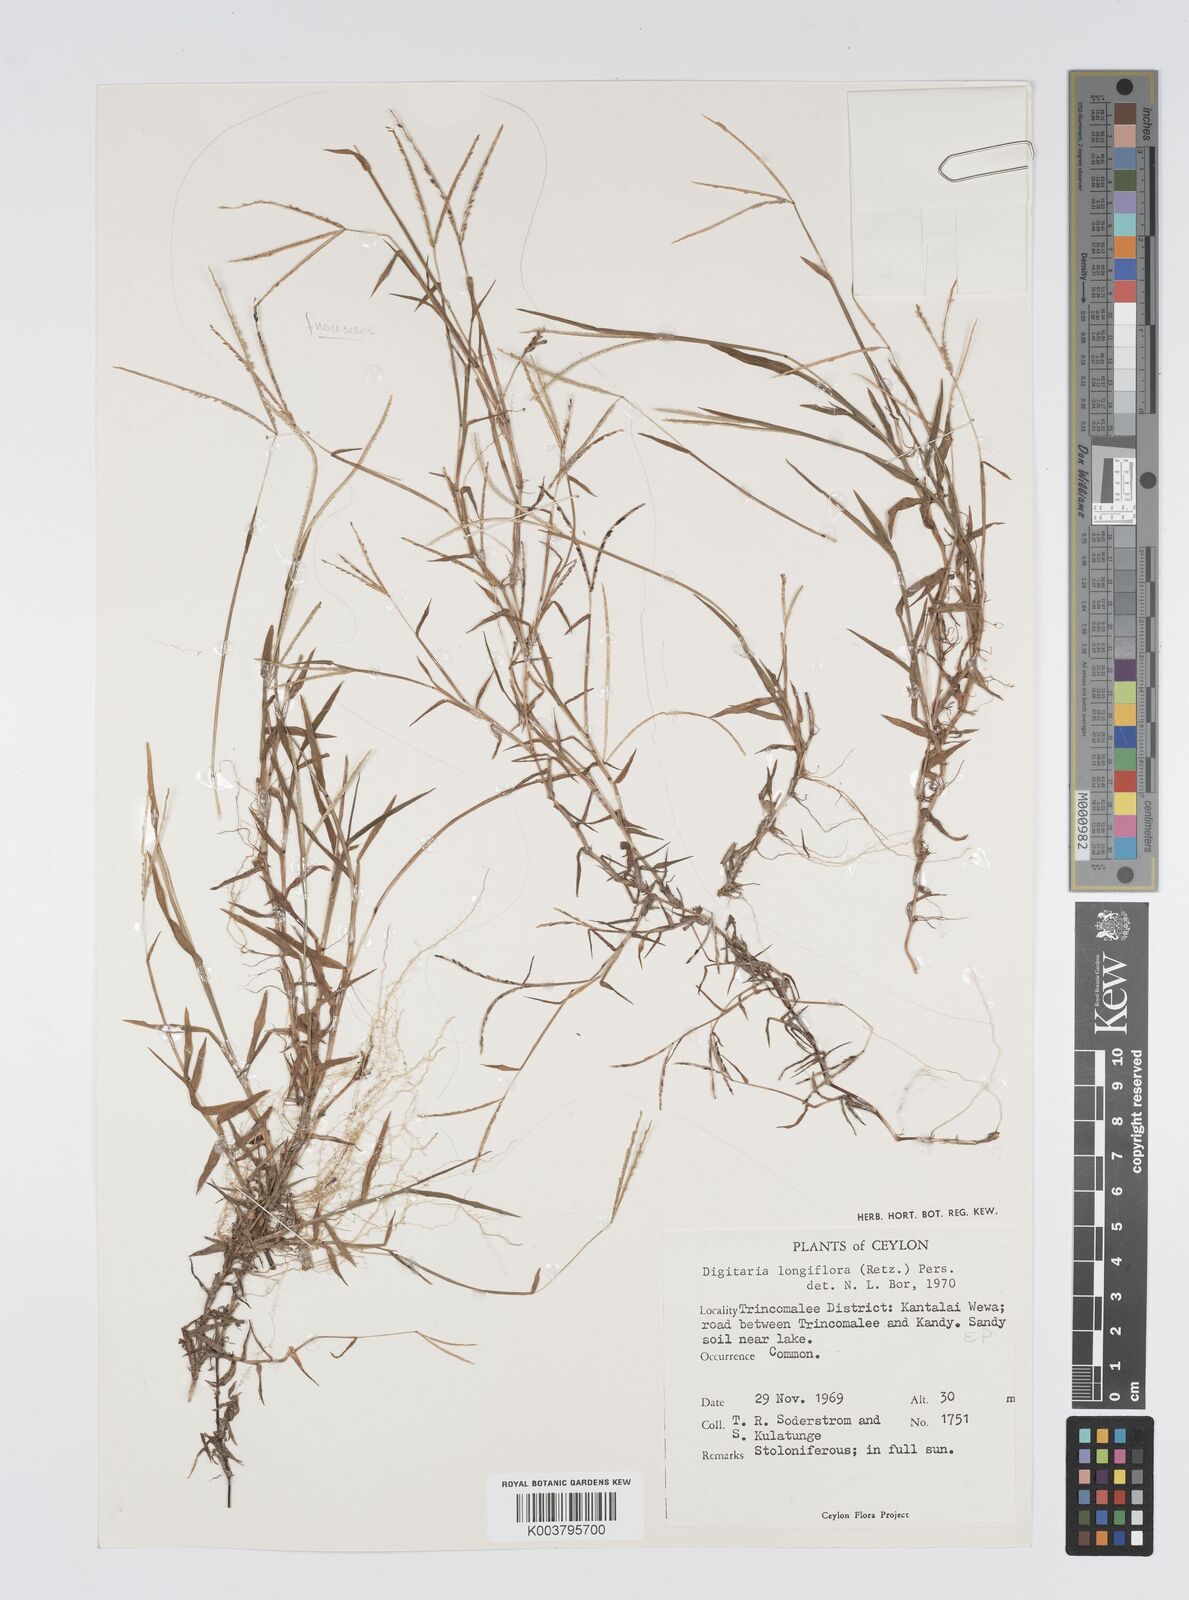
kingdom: Plantae
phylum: Tracheophyta
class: Liliopsida
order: Poales
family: Poaceae
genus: Digitaria
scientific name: Digitaria longiflora
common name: Wire crabgrass
